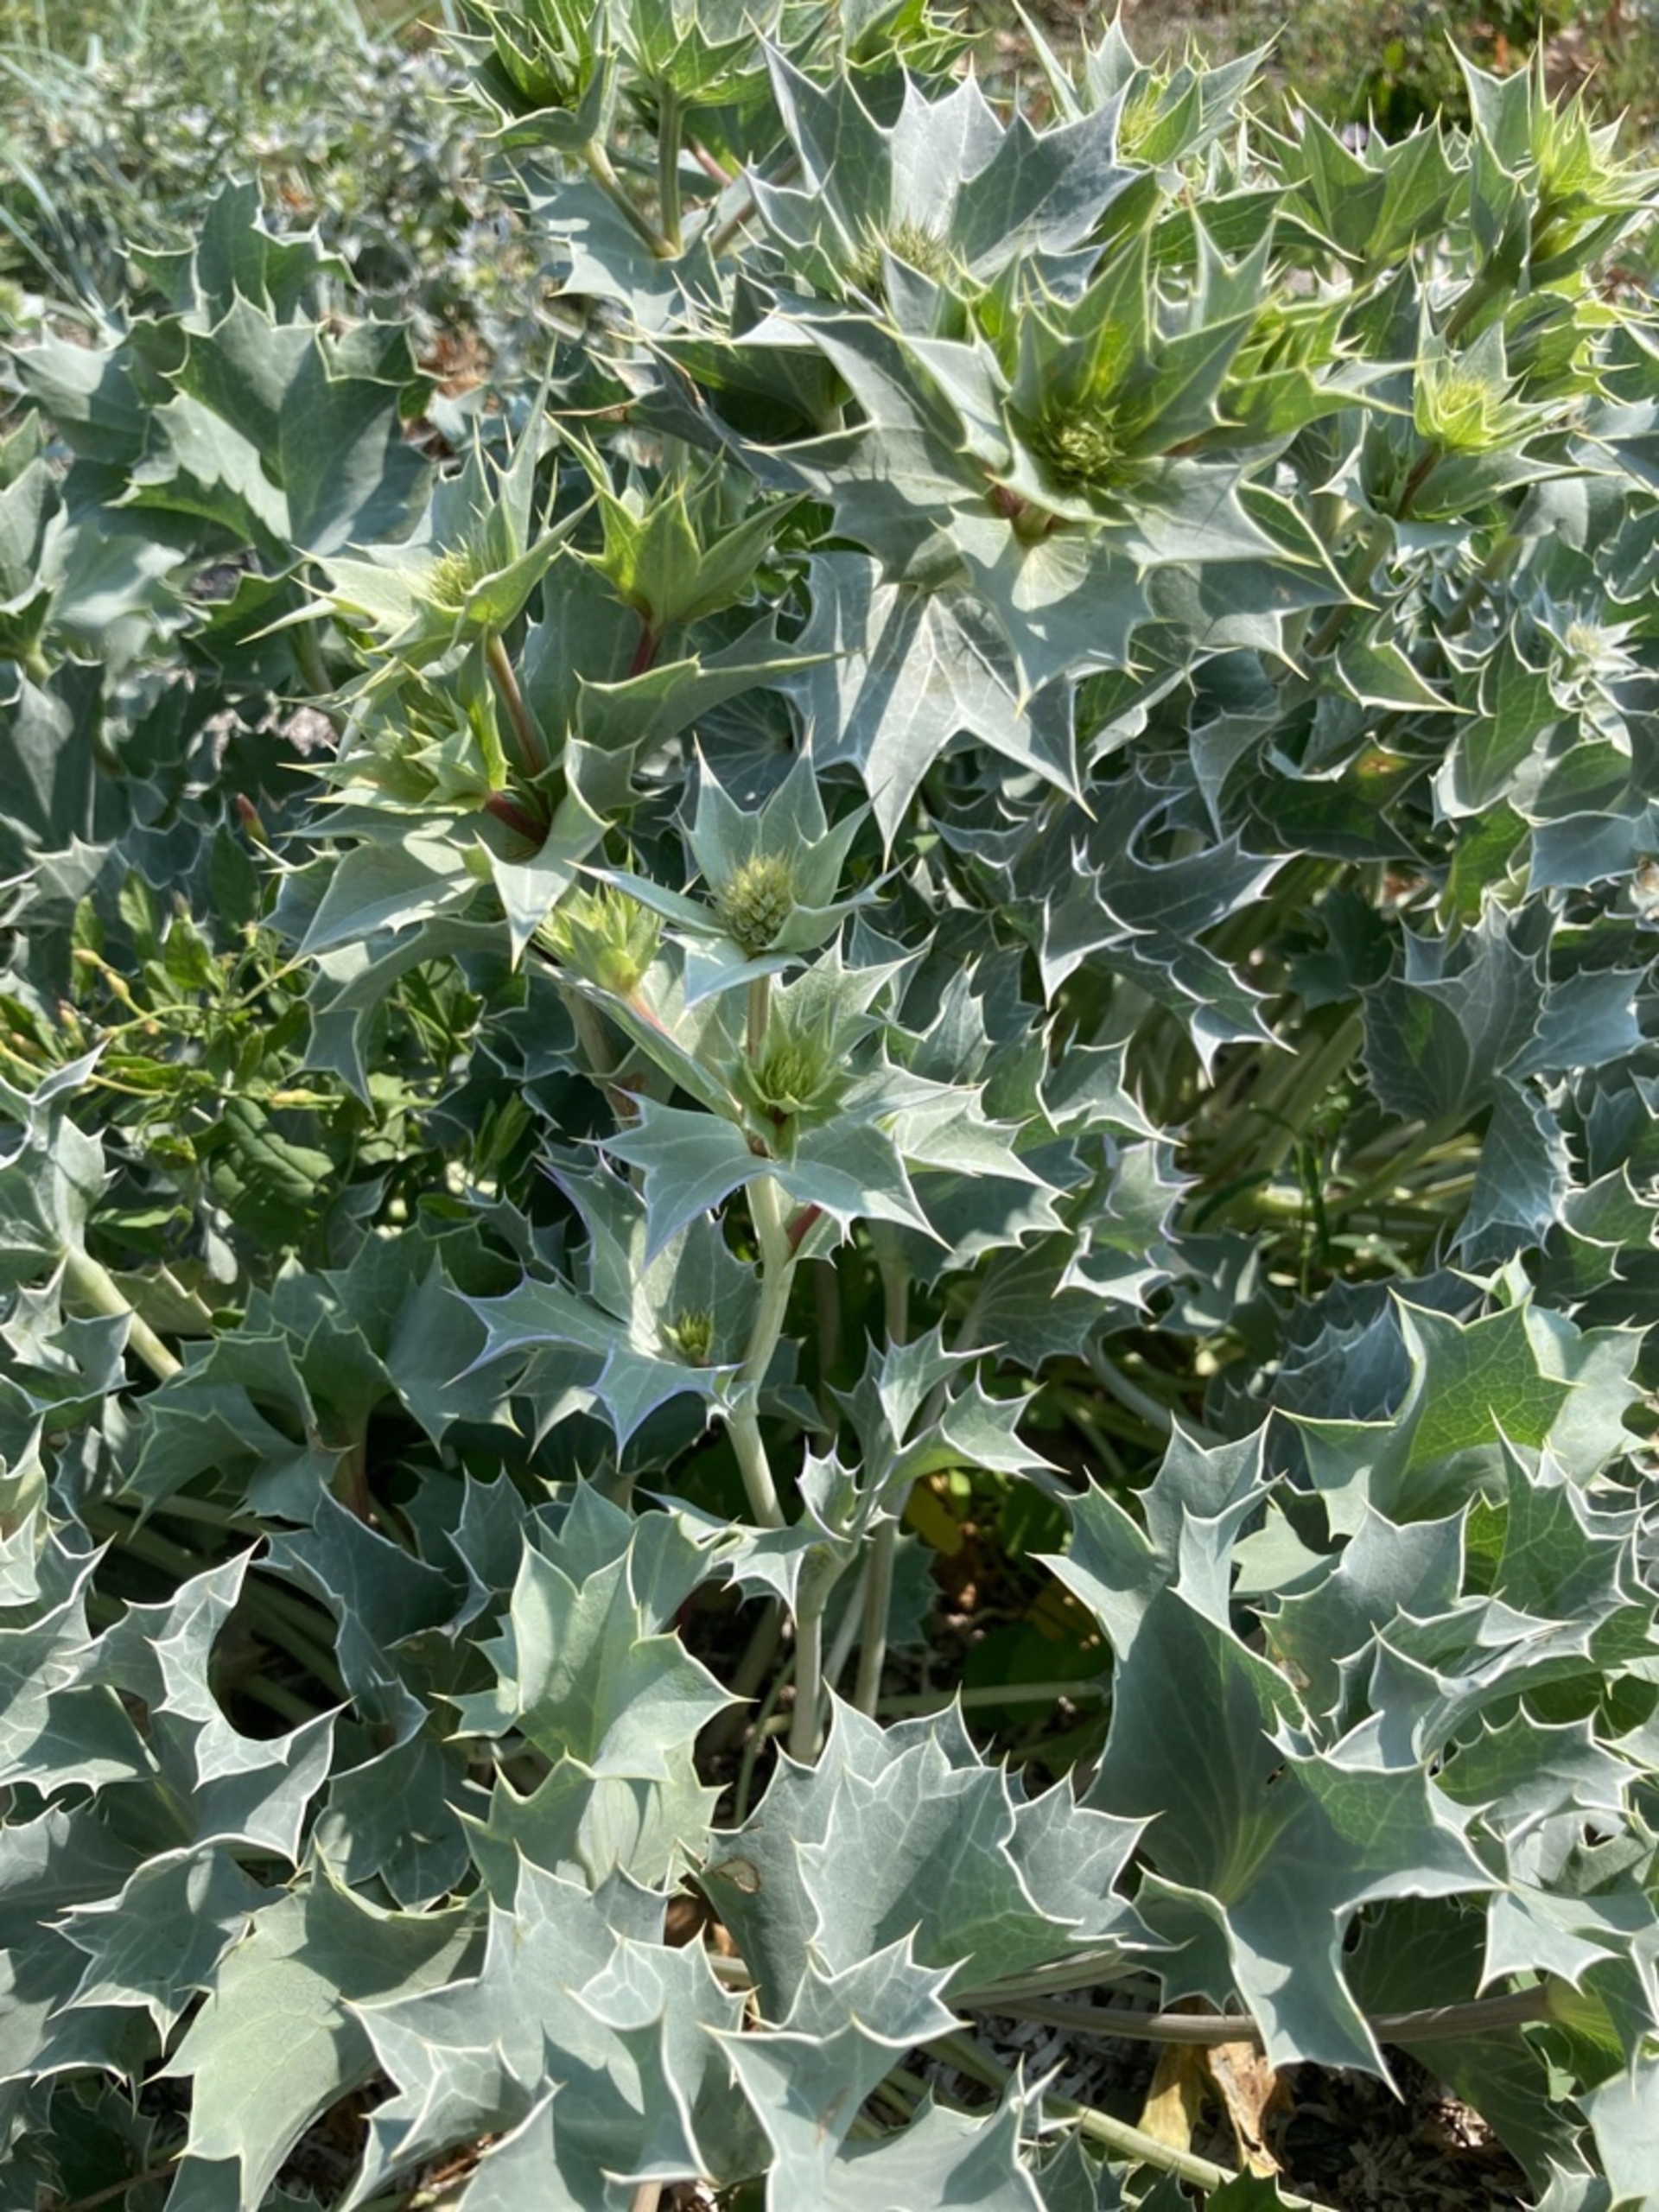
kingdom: Plantae
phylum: Tracheophyta
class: Magnoliopsida
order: Apiales
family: Apiaceae
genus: Eryngium
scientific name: Eryngium maritimum
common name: Strand-mandstro
